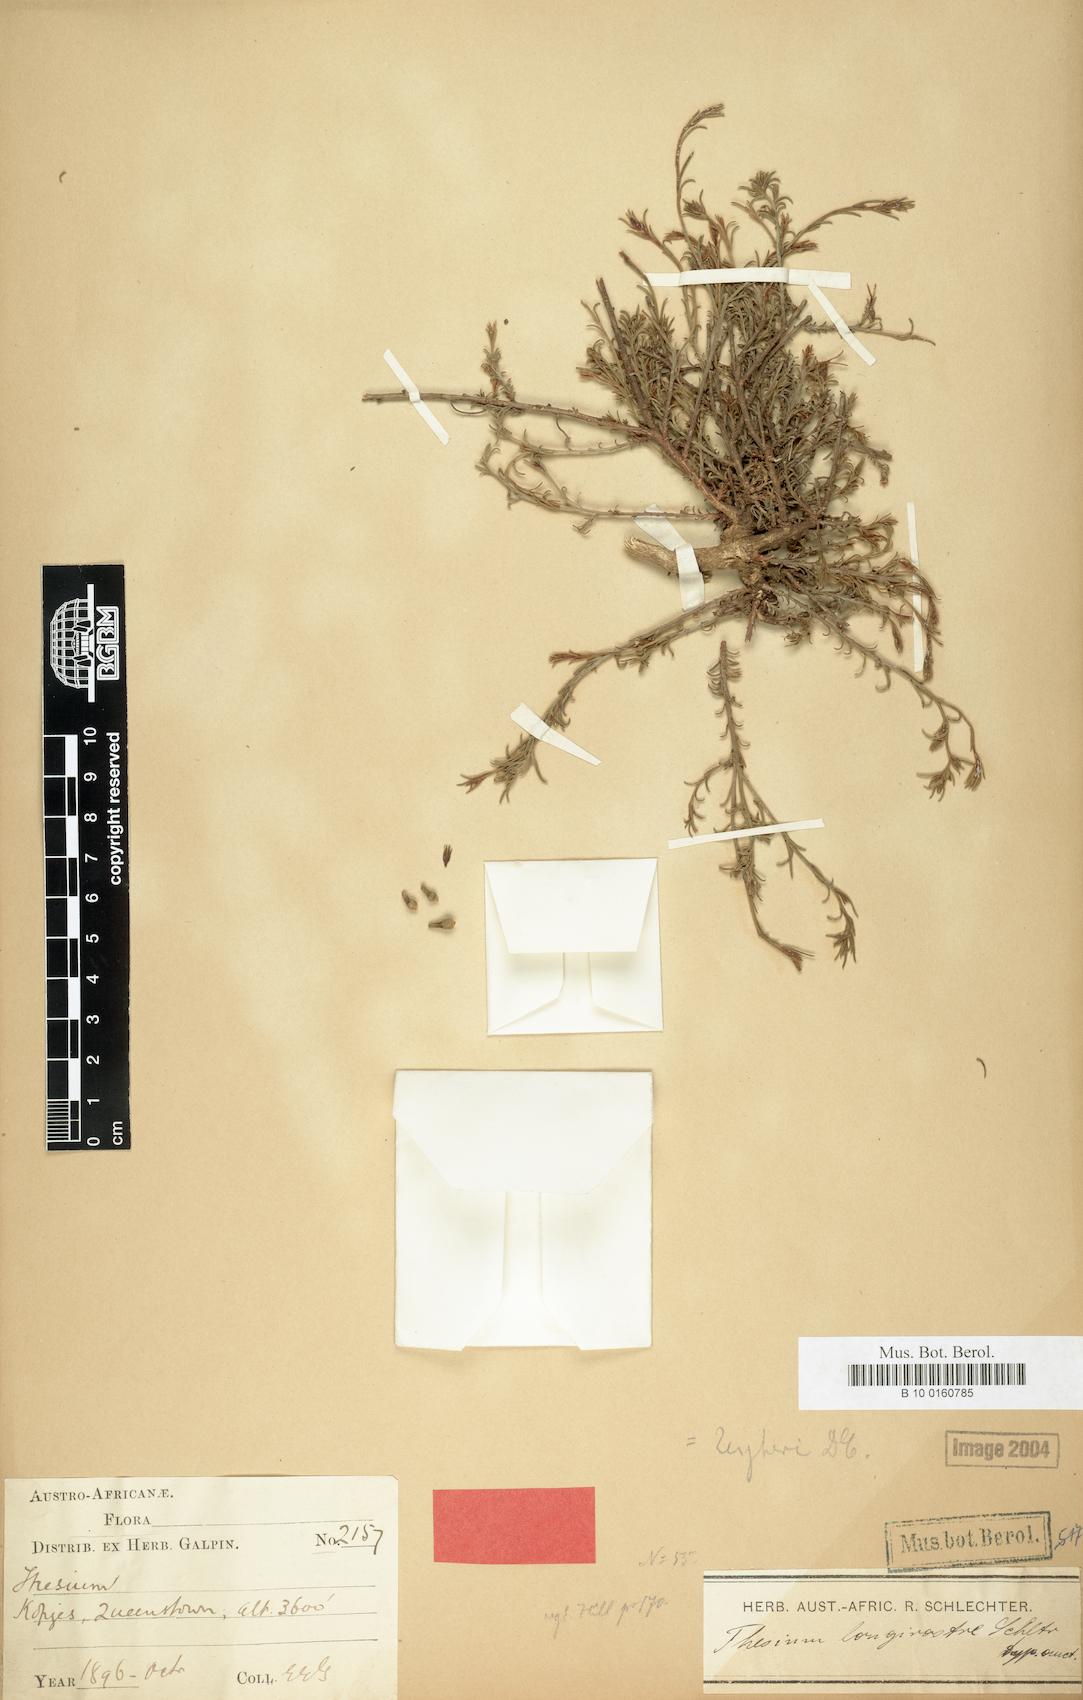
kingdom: Plantae
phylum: Tracheophyta
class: Magnoliopsida
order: Santalales
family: Thesiaceae
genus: Thesium
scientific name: Thesium zeyheri
